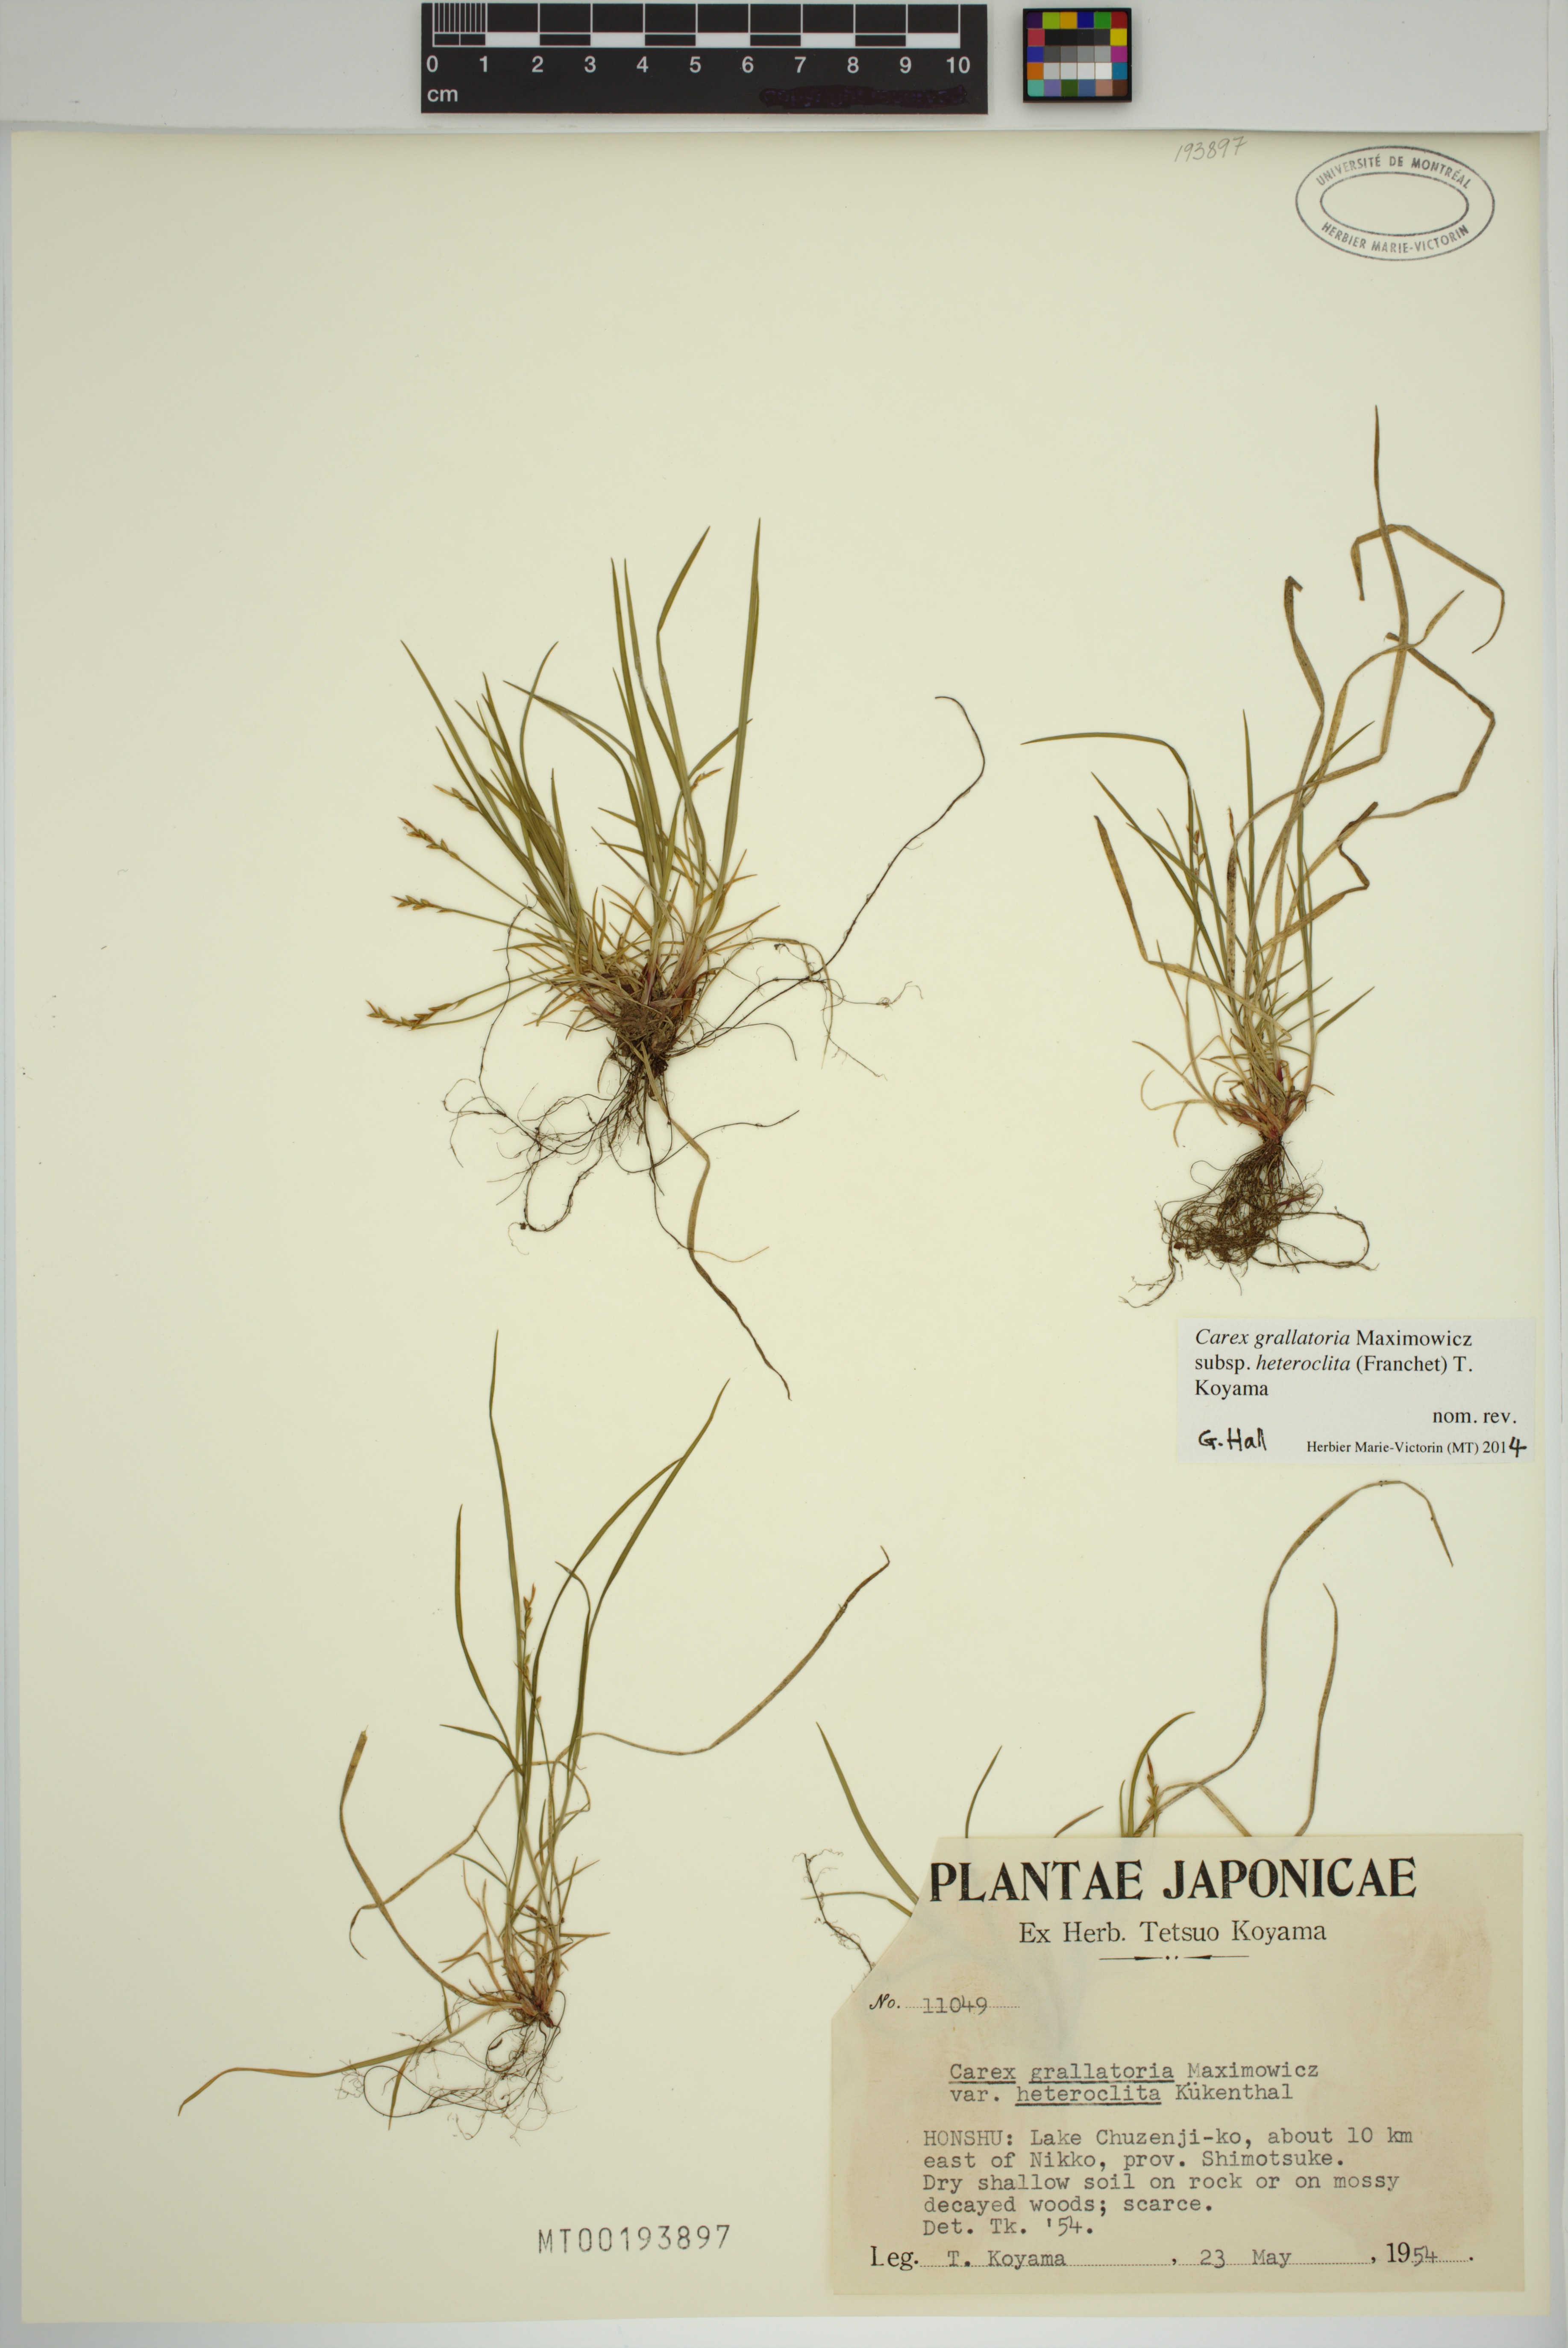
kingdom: Plantae
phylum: Tracheophyta
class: Liliopsida
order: Poales
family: Cyperaceae
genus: Carex
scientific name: Carex grallatoria
